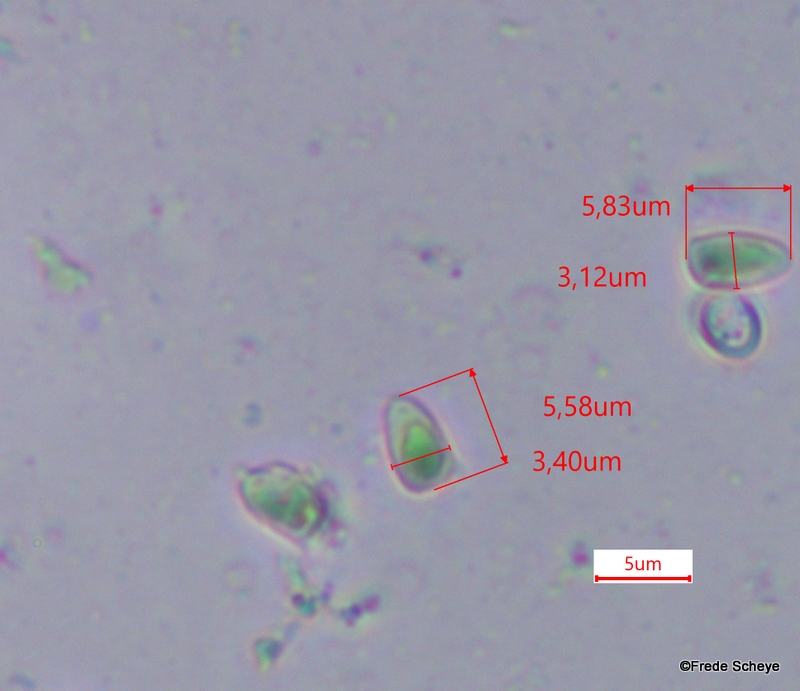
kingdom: Fungi
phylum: Basidiomycota
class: Agaricomycetes
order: Agaricales
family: Agaricaceae
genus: Lepiota
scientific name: Lepiota cristata
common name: stinkende parasolhat
